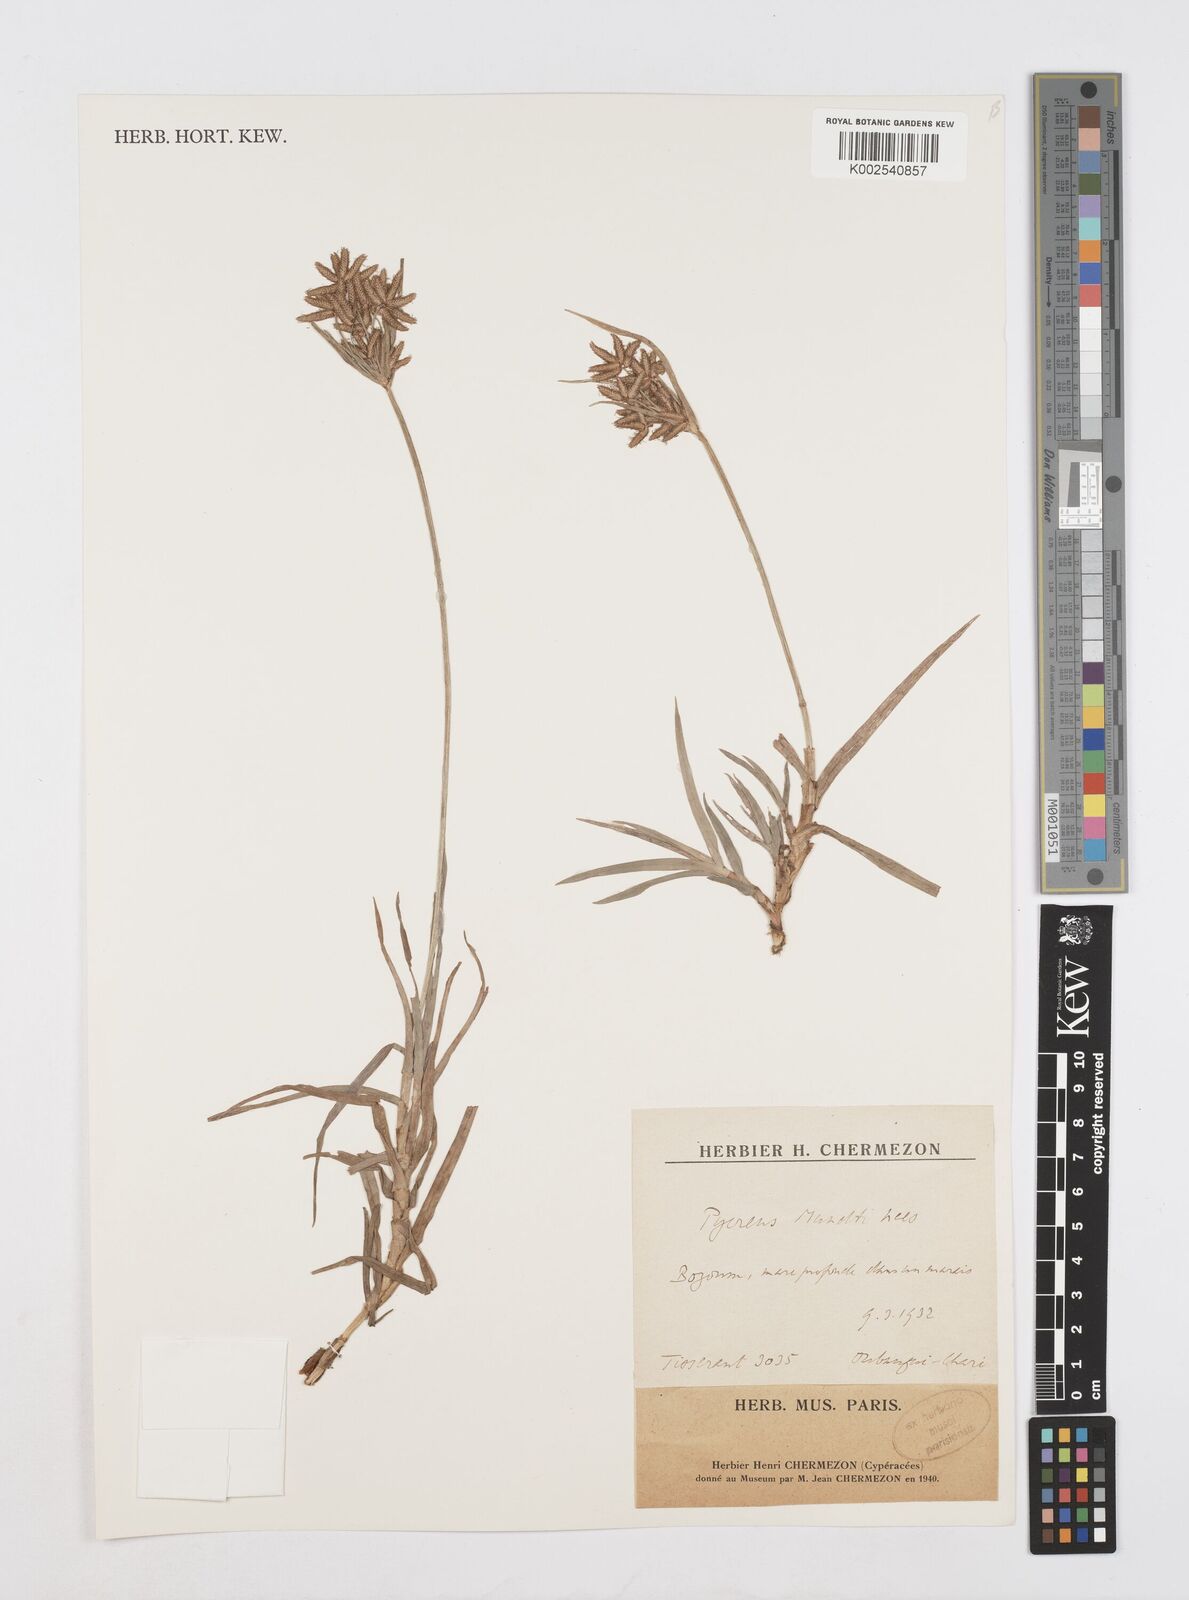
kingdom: Plantae
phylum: Tracheophyta
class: Liliopsida
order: Poales
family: Cyperaceae
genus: Cyperus
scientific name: Cyperus mundii
